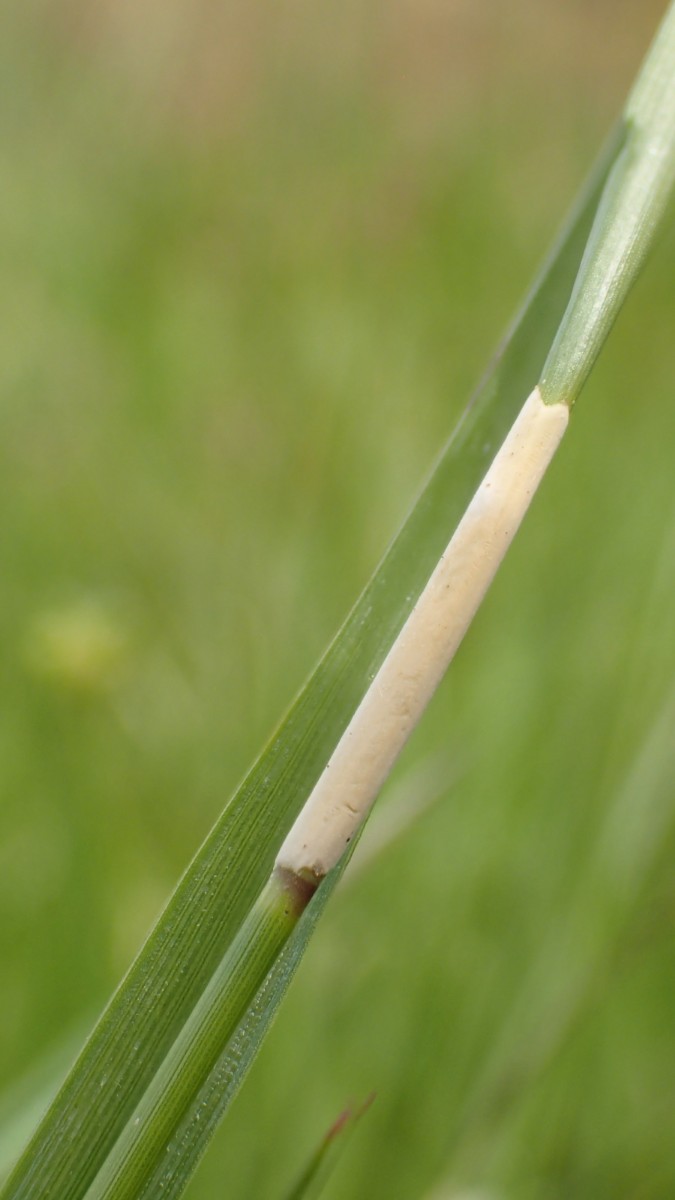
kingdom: Fungi
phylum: Ascomycota
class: Sordariomycetes
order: Hypocreales
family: Clavicipitaceae
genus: Epichloe
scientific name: Epichloe baconii
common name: hvene-kernerør
